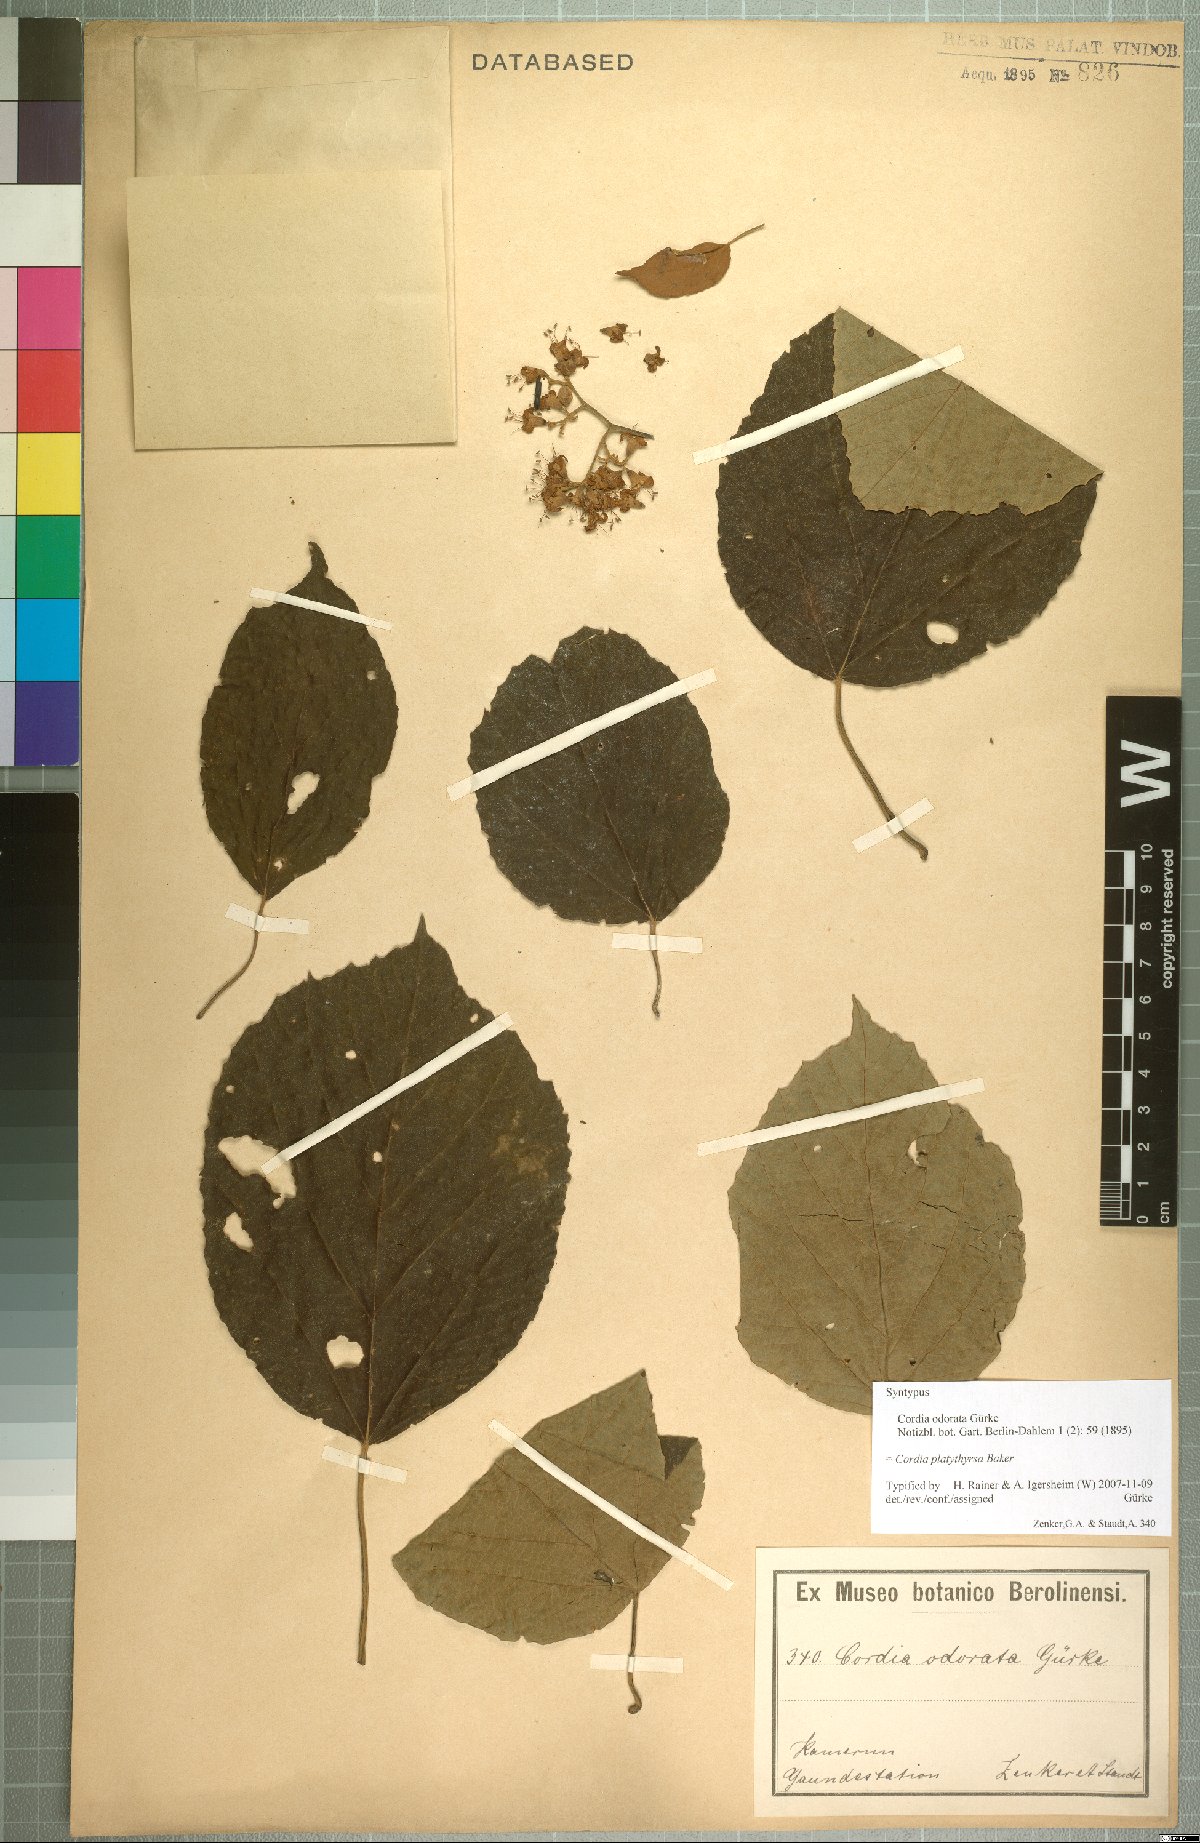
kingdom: Plantae
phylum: Tracheophyta
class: Magnoliopsida
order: Boraginales
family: Cordiaceae
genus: Cordia
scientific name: Cordia platythyrsa
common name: West african cordia
